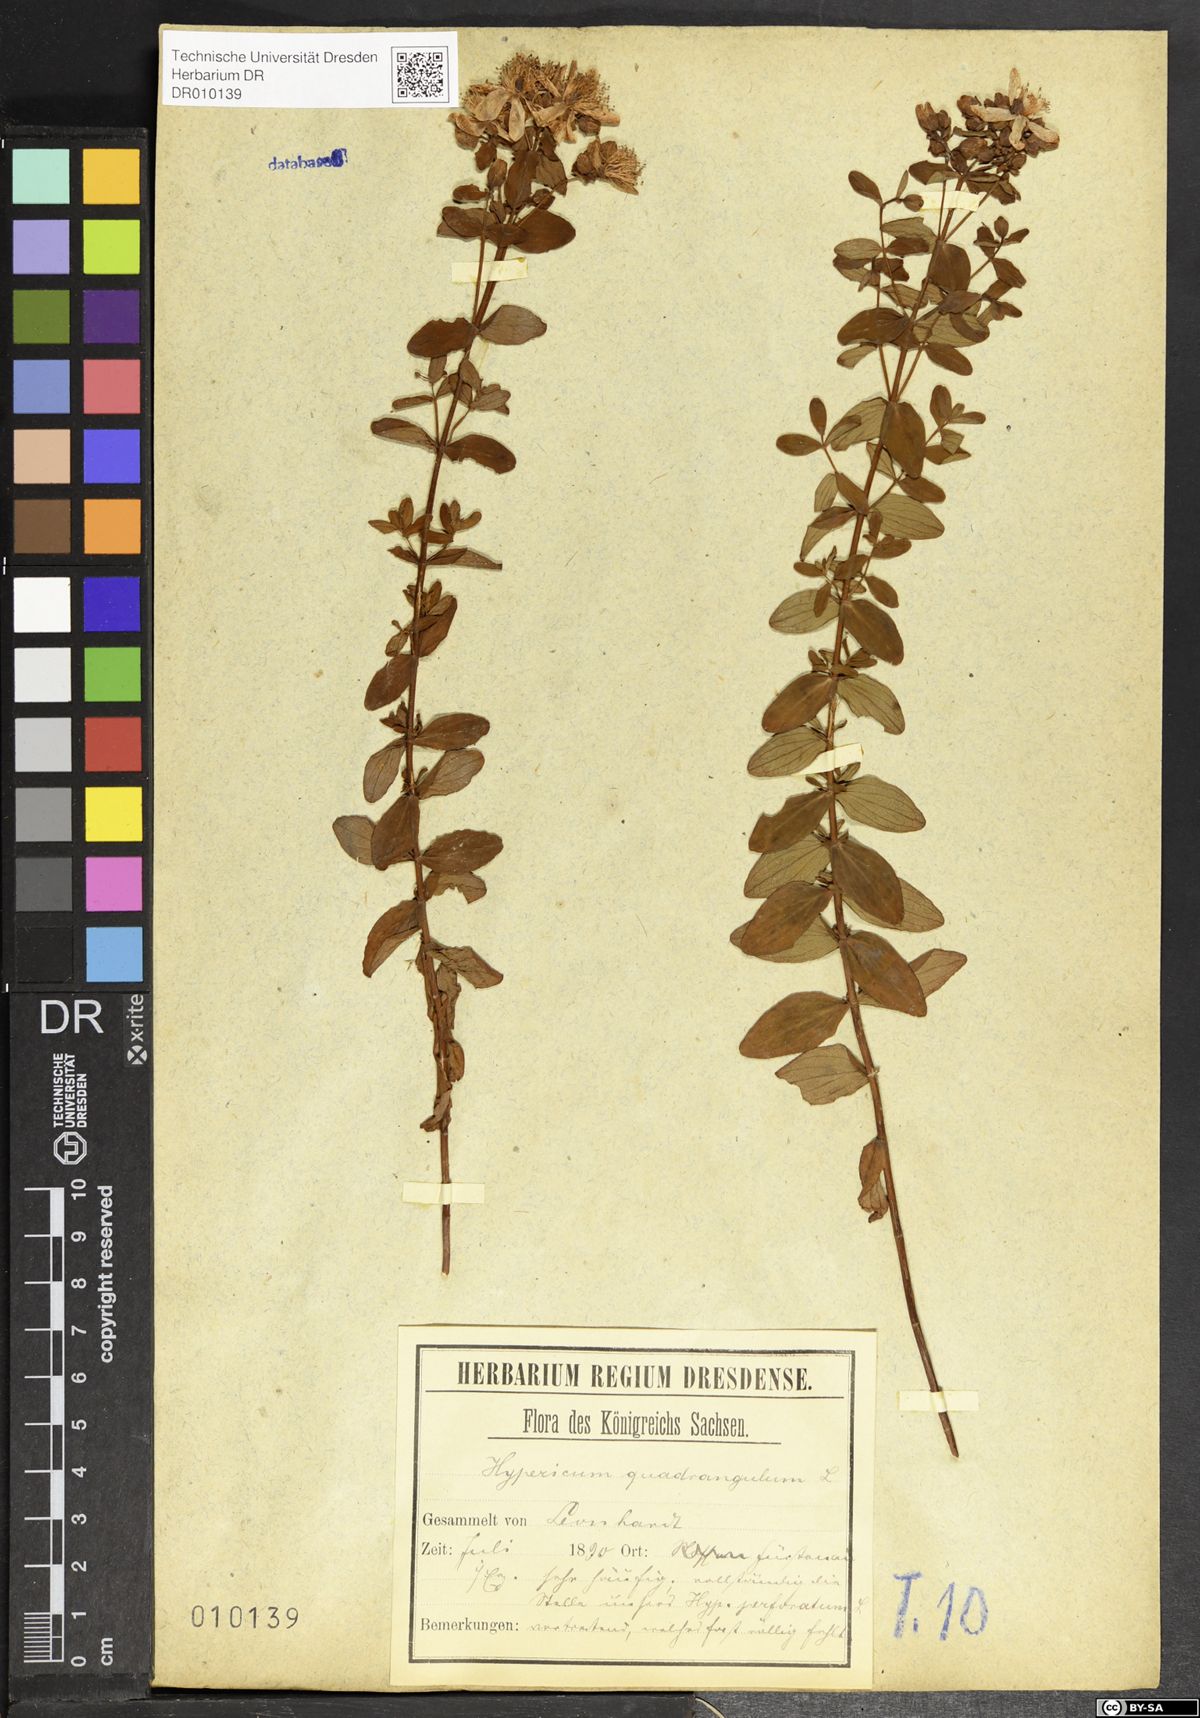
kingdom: Plantae
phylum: Tracheophyta
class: Magnoliopsida
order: Malpighiales
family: Hypericaceae
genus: Hypericum
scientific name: Hypericum maculatum
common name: Imperforate st. john's-wort
